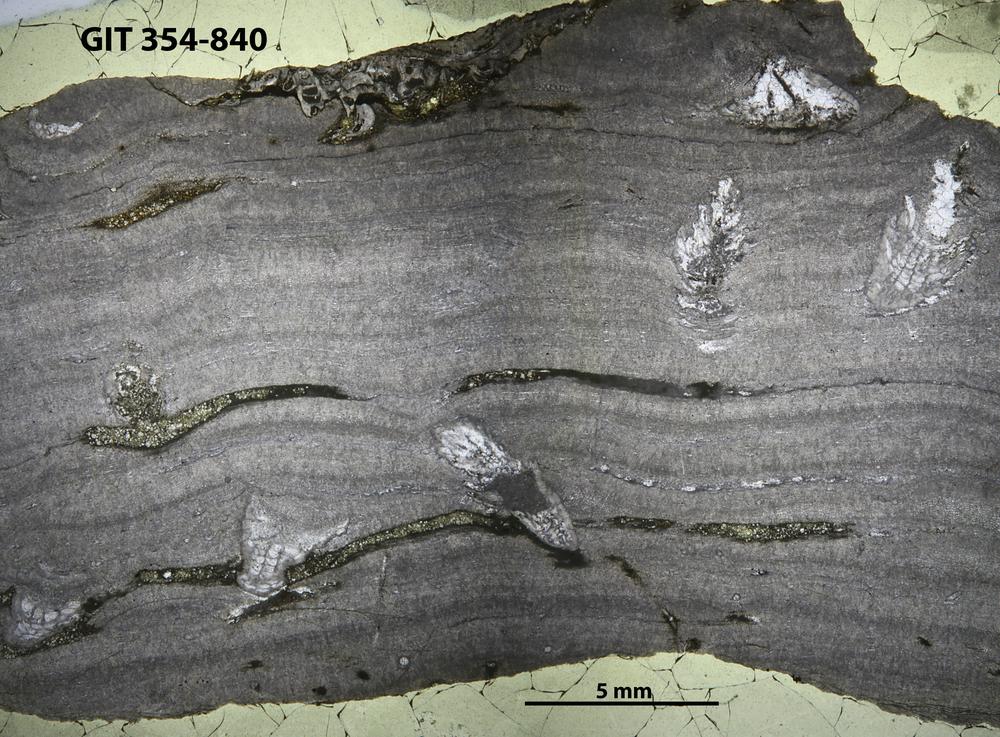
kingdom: Animalia
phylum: Porifera
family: Densastromatidae
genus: Densastroma
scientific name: Densastroma
